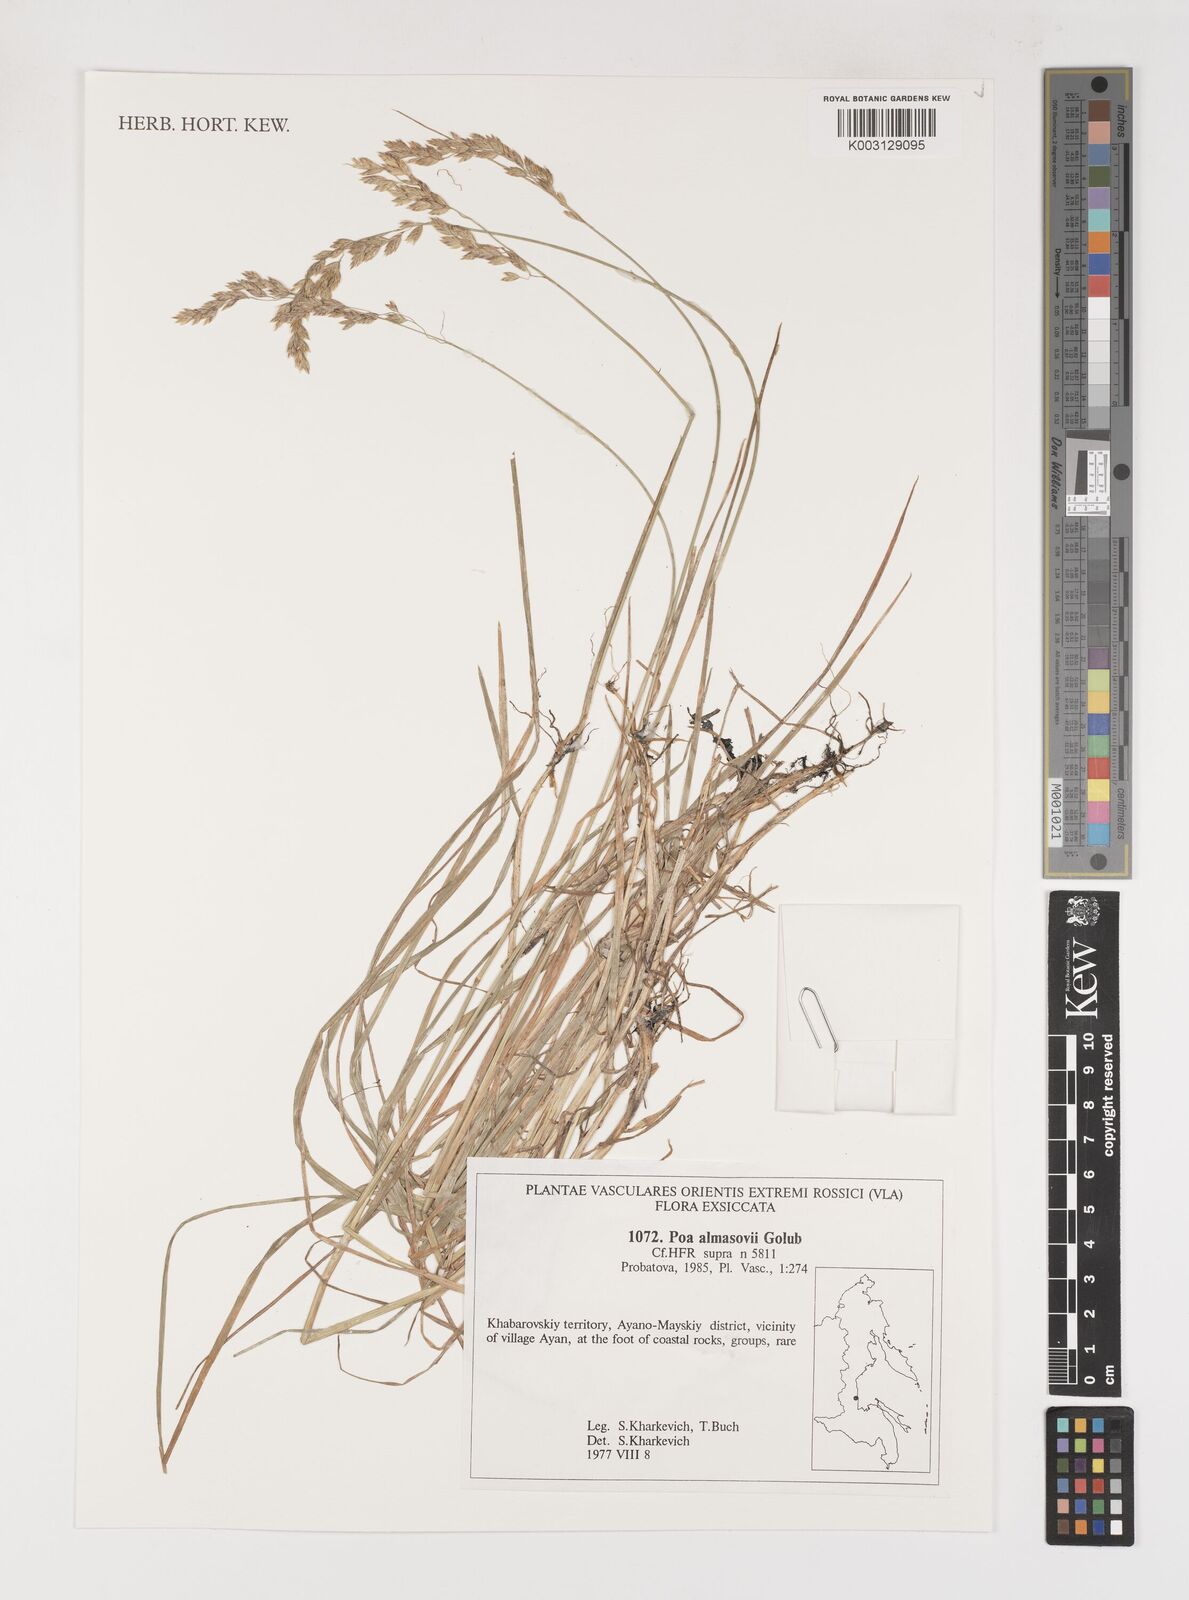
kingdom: Plantae
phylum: Tracheophyta
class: Liliopsida
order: Poales
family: Poaceae
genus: Poa
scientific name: Poa almasovii
